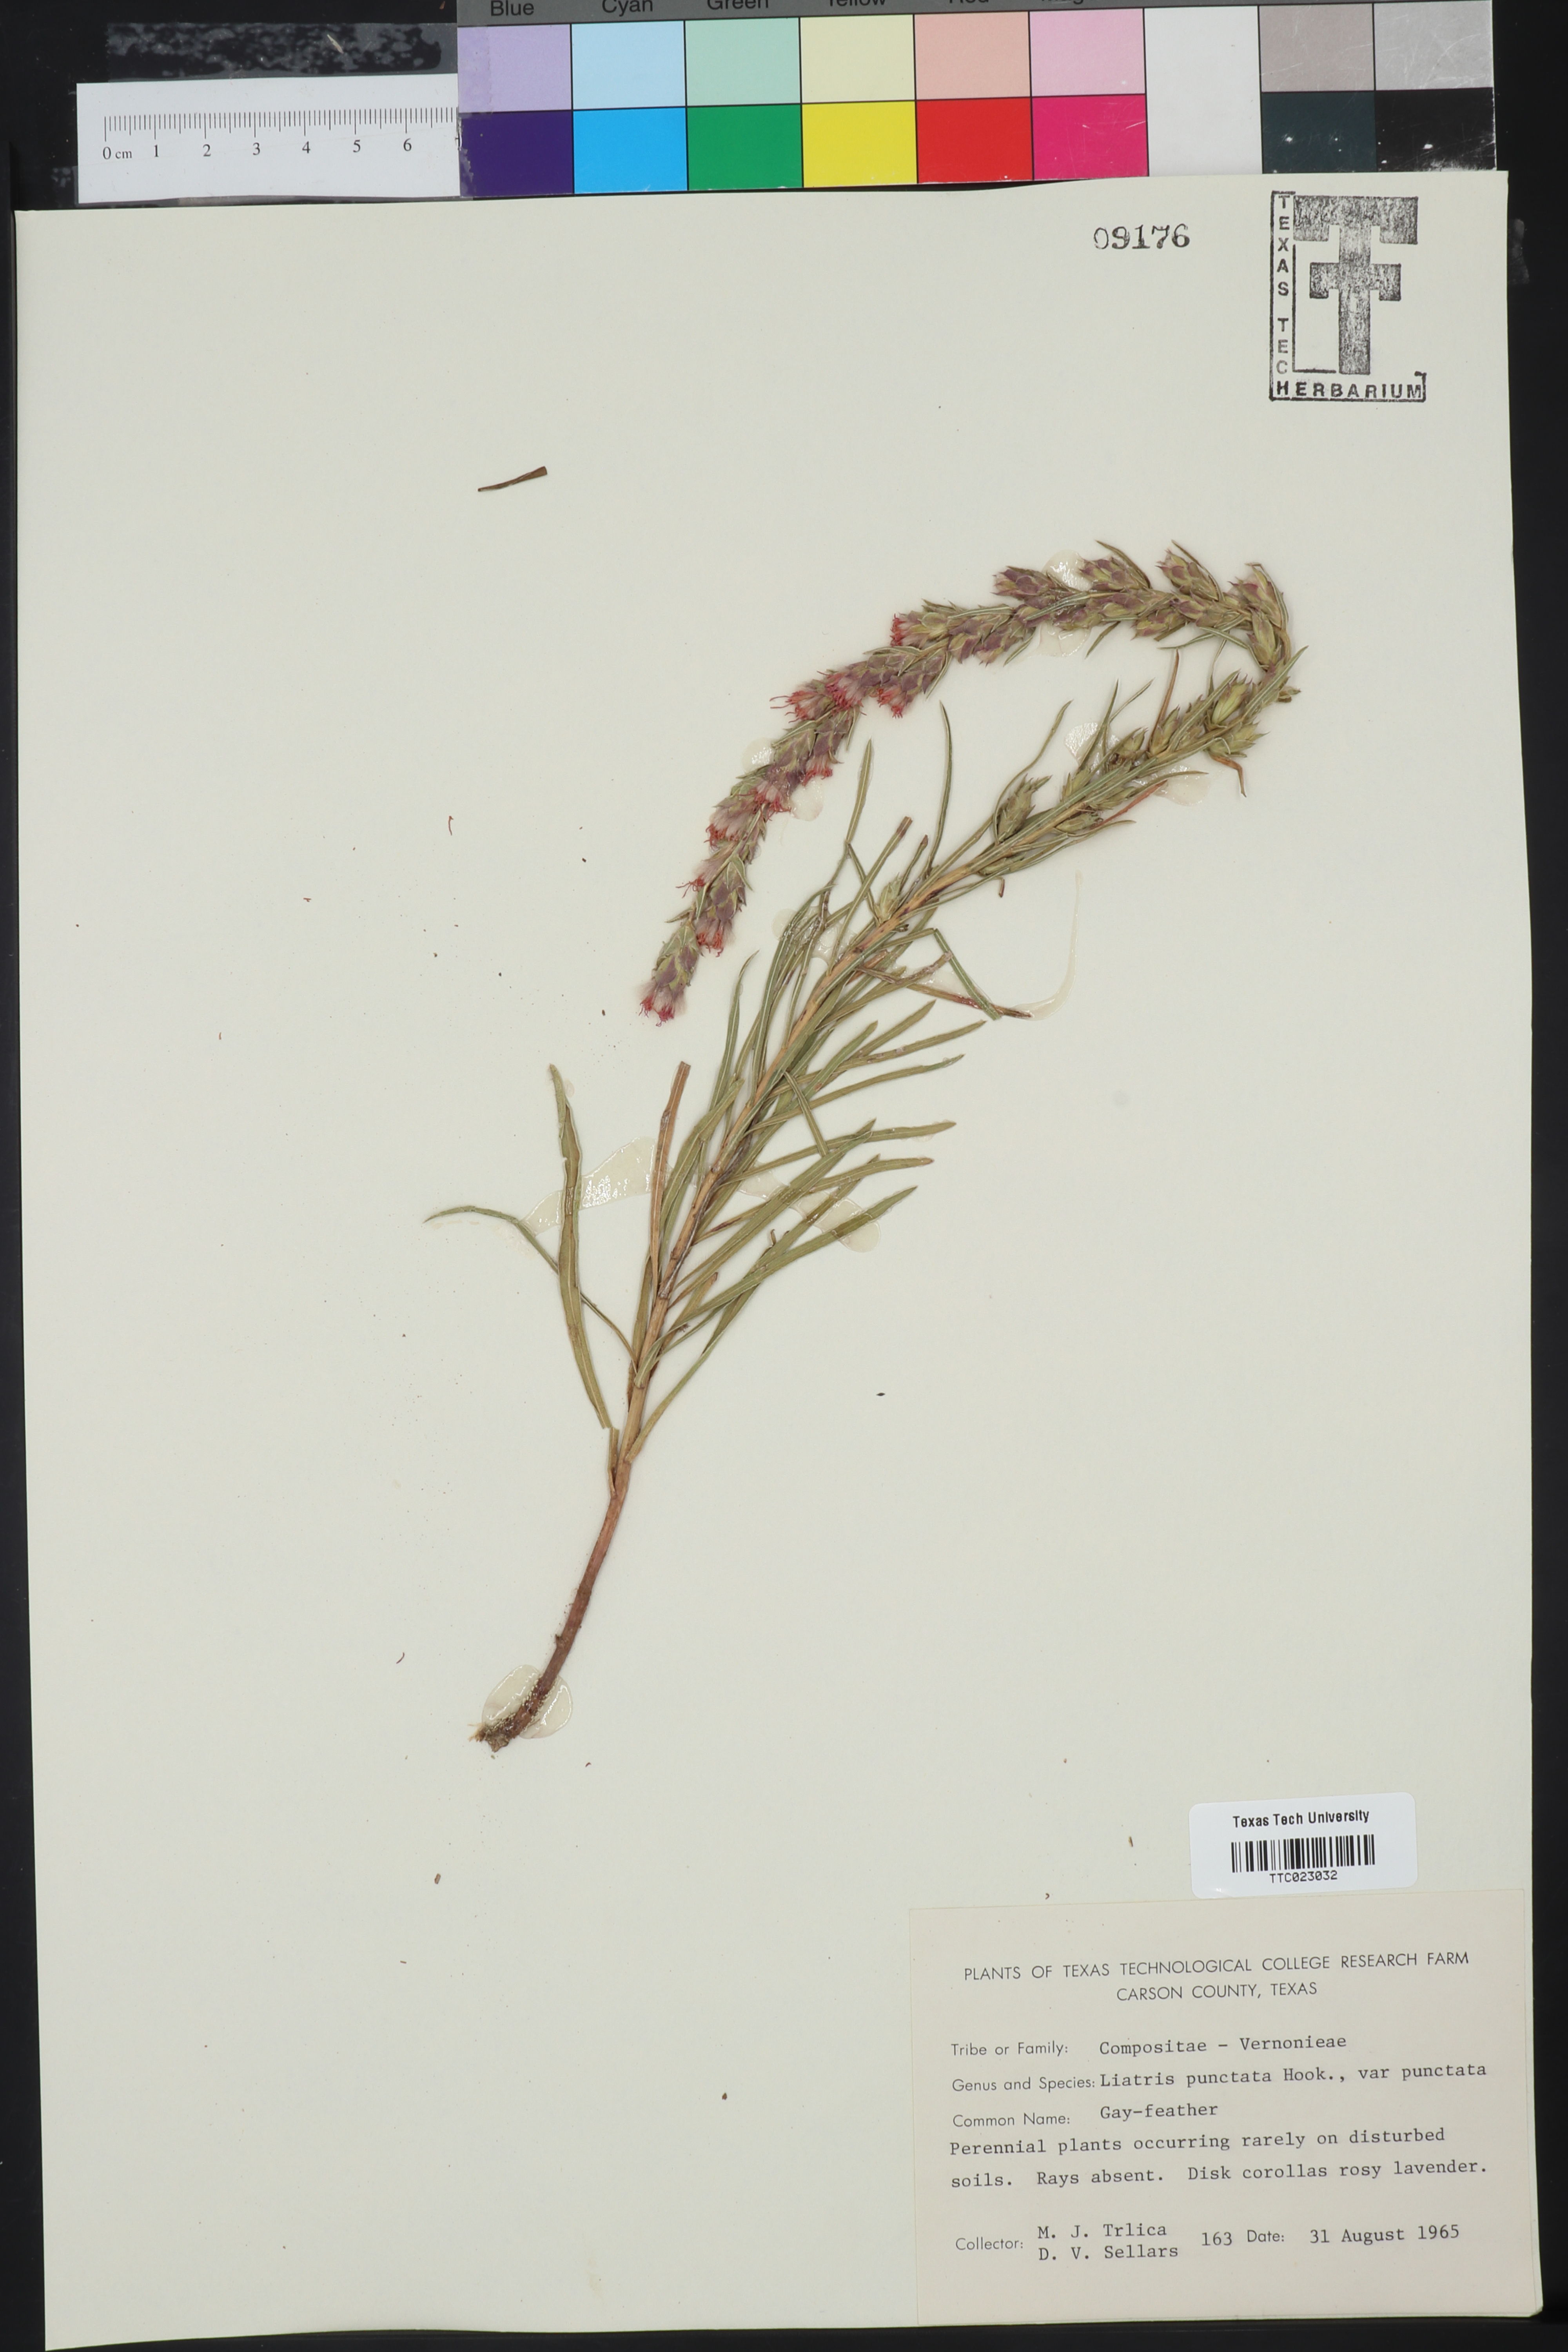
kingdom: Plantae
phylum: Tracheophyta
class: Magnoliopsida
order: Asterales
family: Asteraceae
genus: Liatris
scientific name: Liatris punctata
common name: Dotted gayfeather
